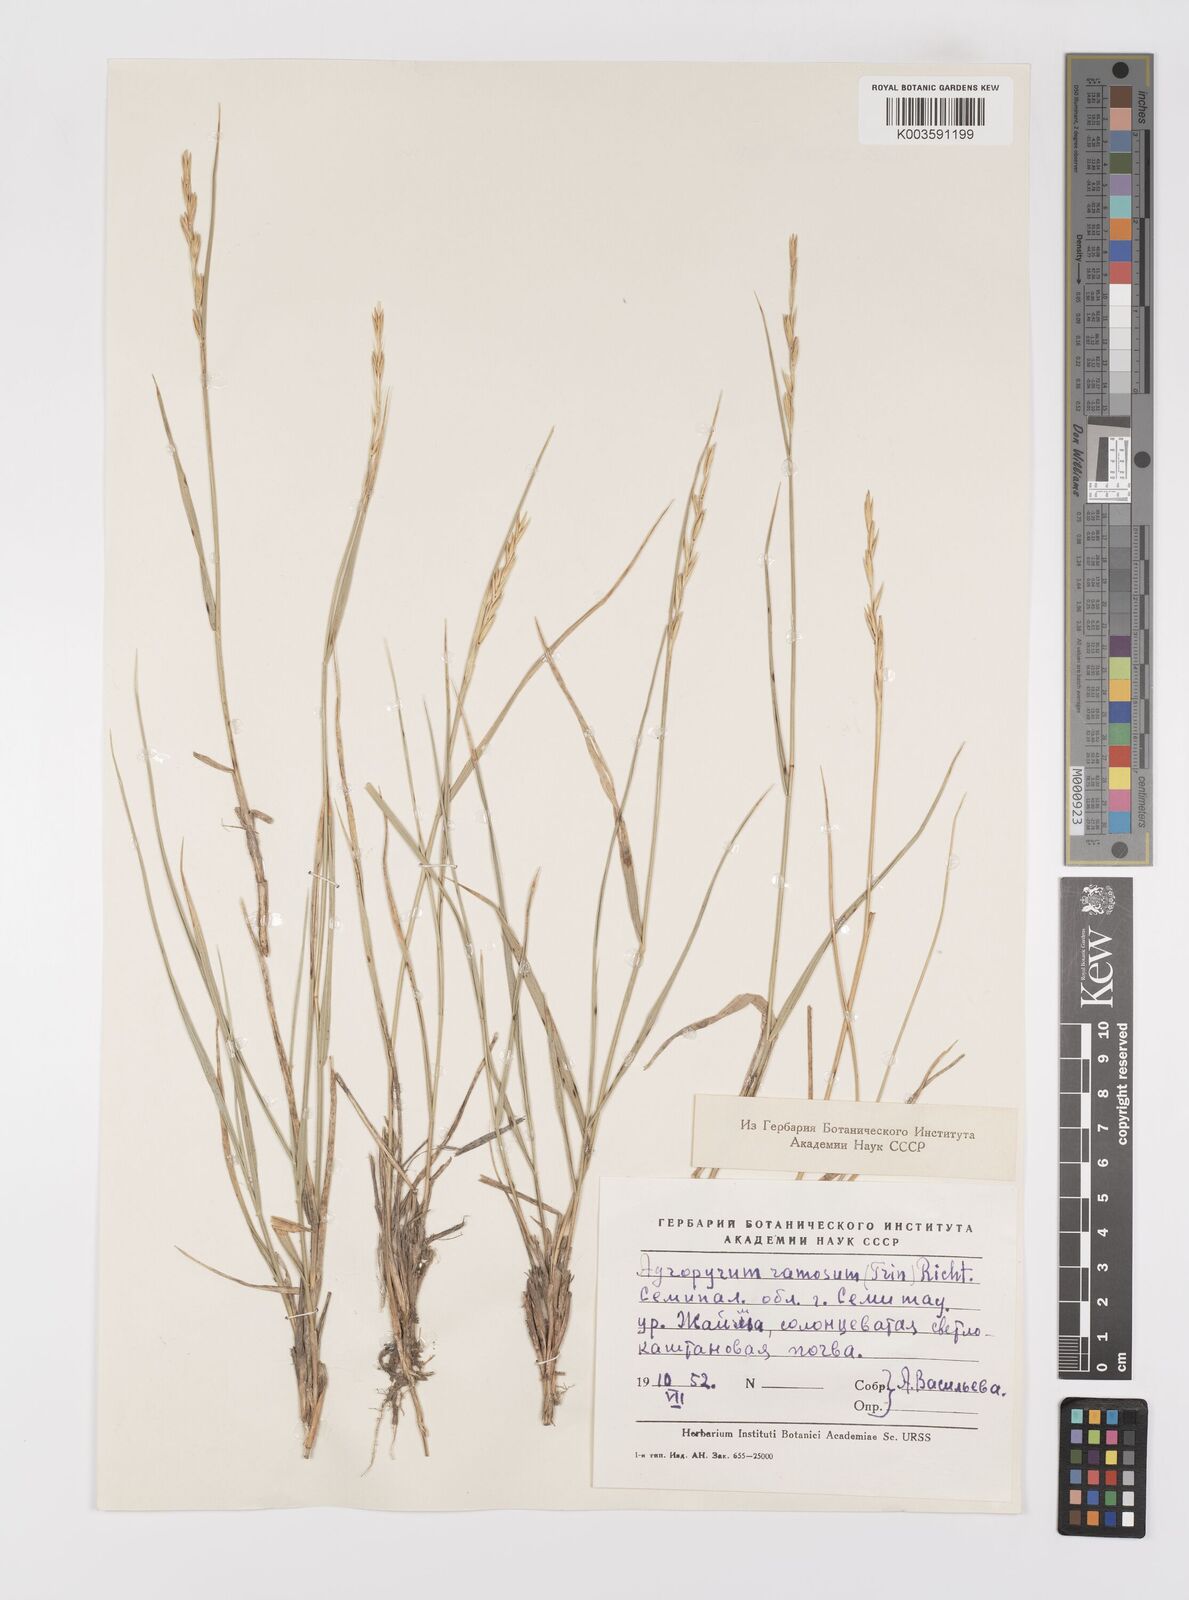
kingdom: Plantae
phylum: Tracheophyta
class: Liliopsida
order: Poales
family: Poaceae
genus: Leymus
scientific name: Leymus ramosus
